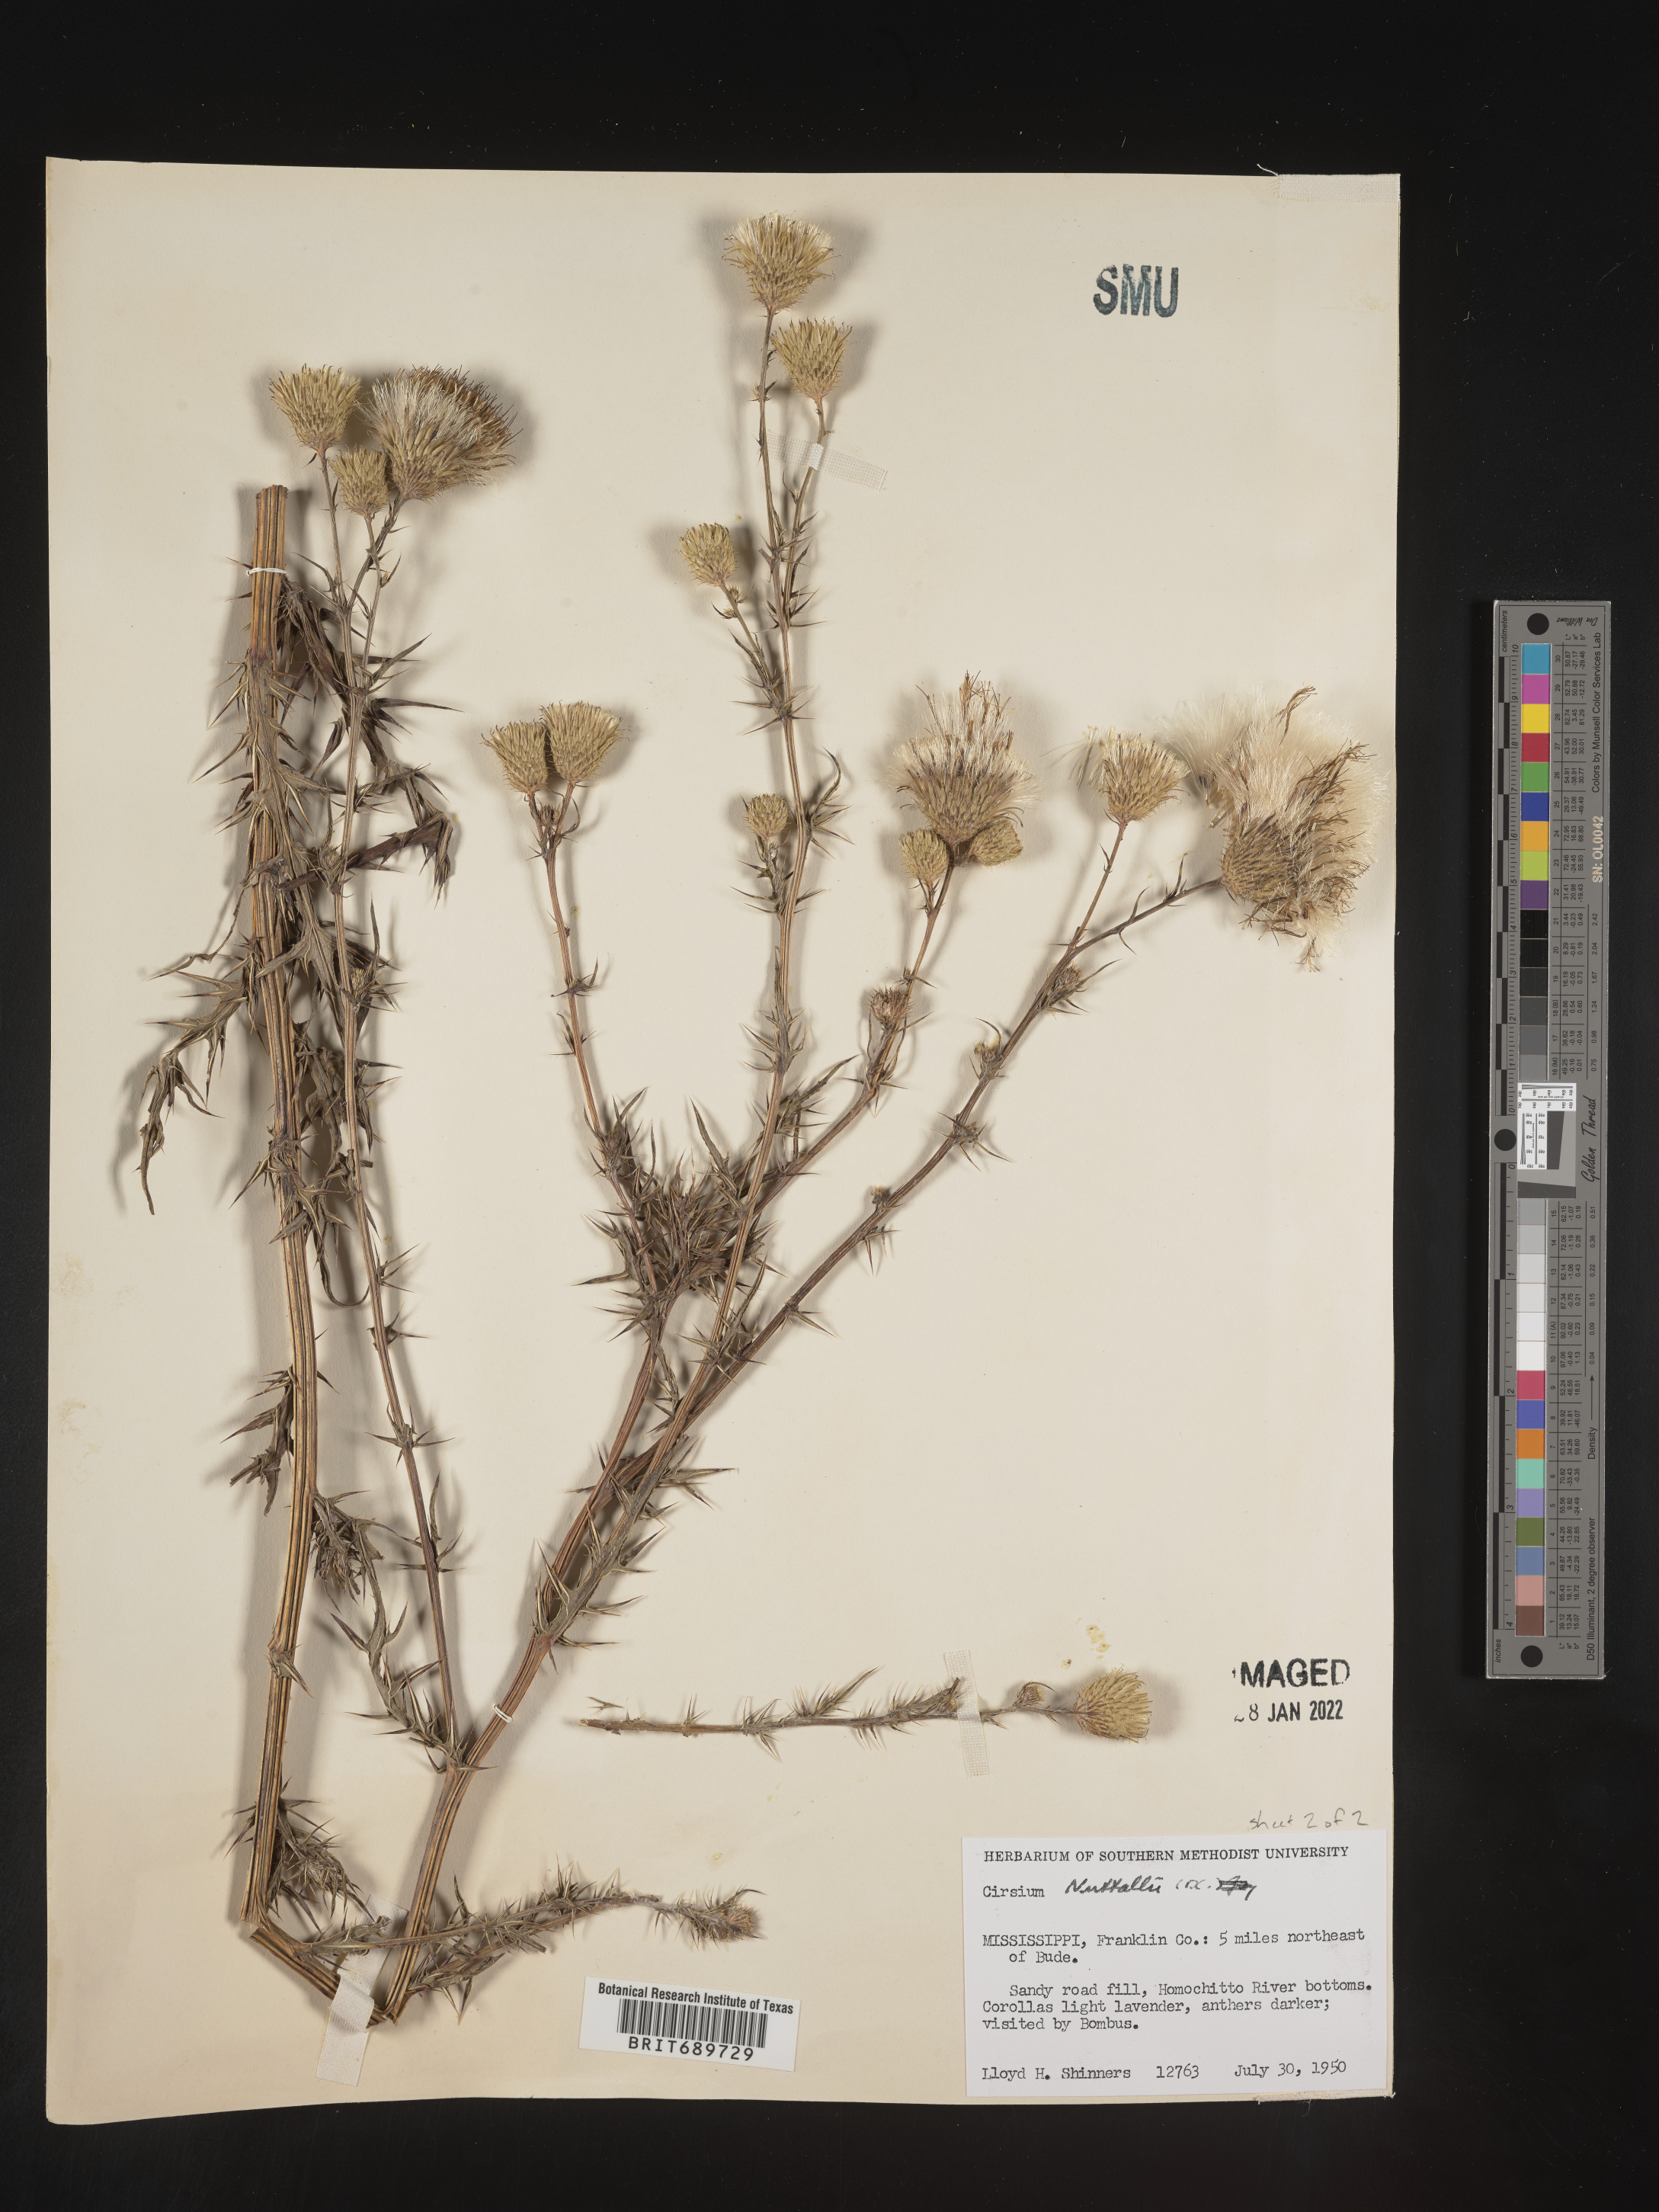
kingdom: Plantae
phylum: Tracheophyta
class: Magnoliopsida
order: Asterales
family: Asteraceae
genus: Cirsium
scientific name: Cirsium
